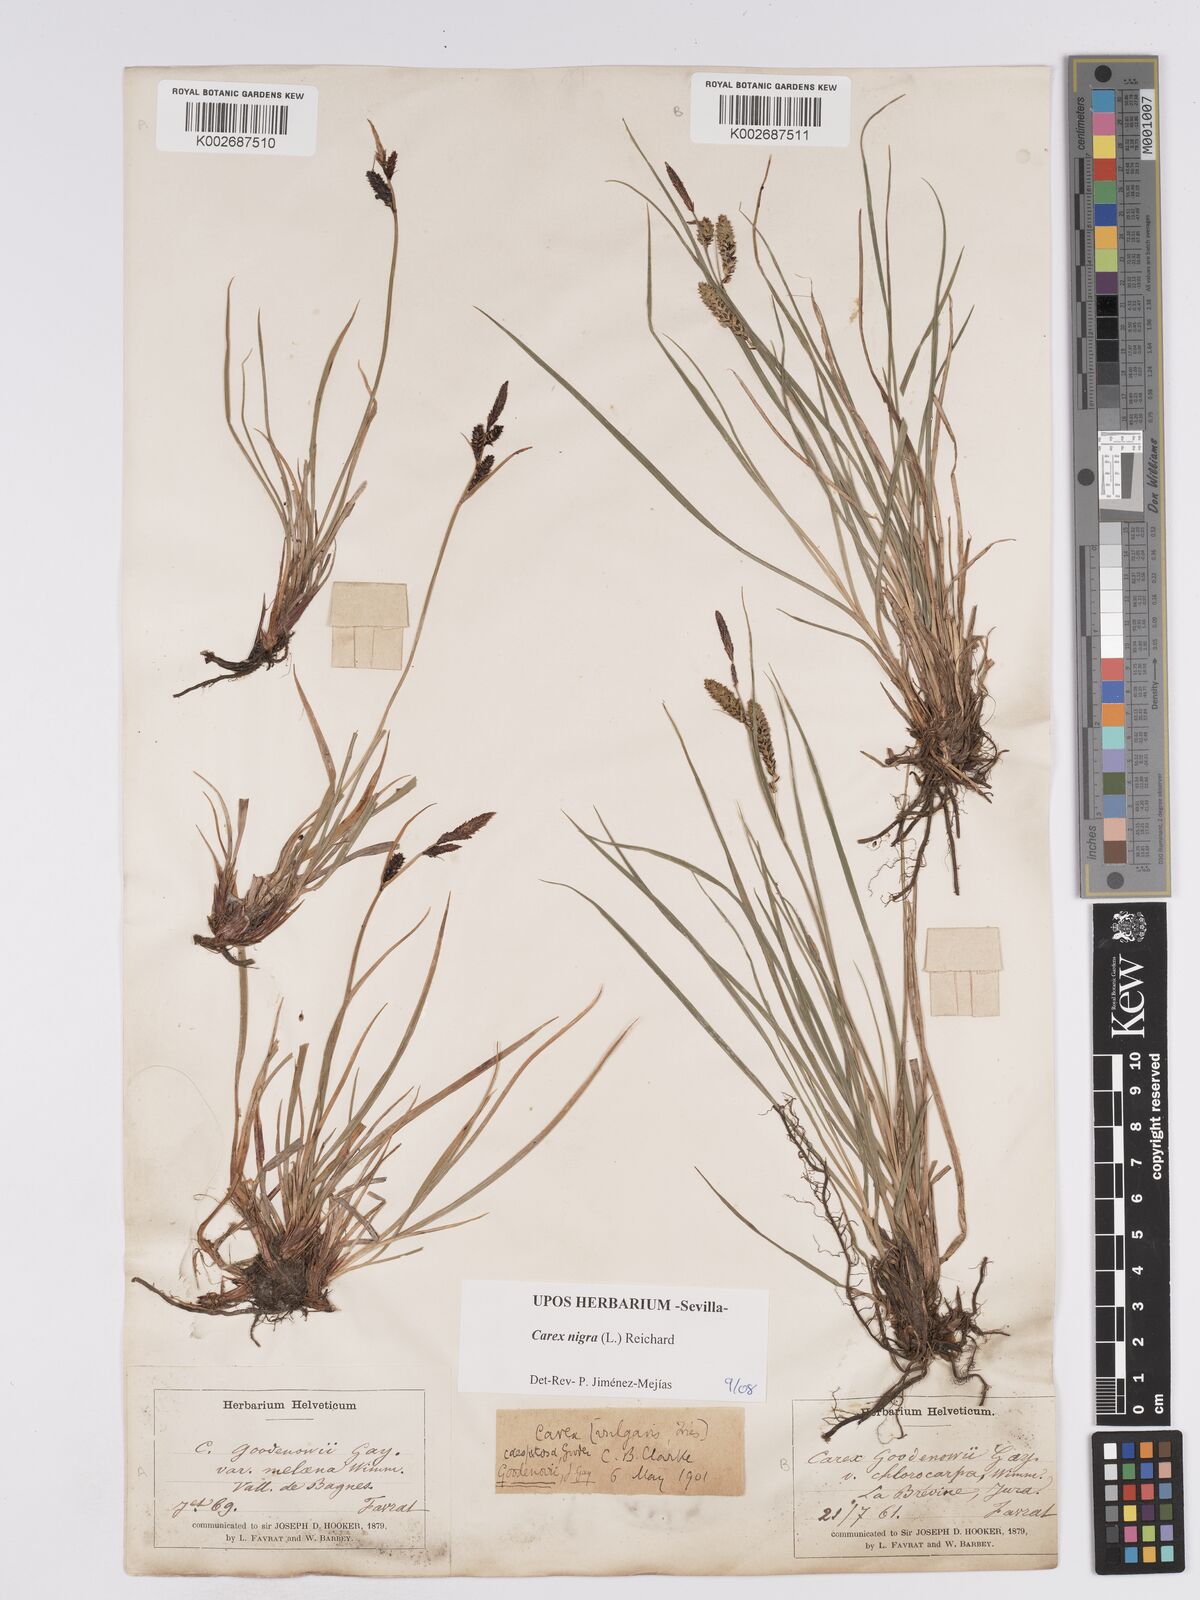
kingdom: Plantae
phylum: Tracheophyta
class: Liliopsida
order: Poales
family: Cyperaceae
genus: Carex
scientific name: Carex nigra
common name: Common sedge
